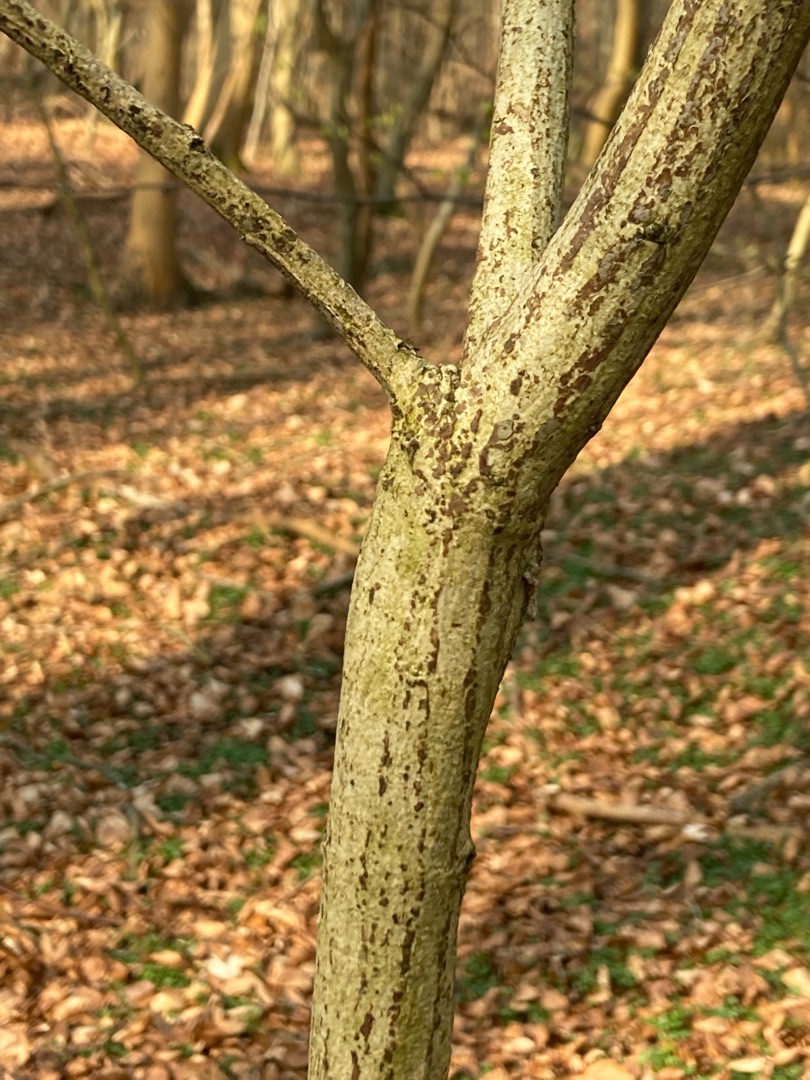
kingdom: Plantae
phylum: Tracheophyta
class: Magnoliopsida
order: Celastrales
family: Celastraceae
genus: Euonymus
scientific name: Euonymus europaeus
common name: Benved
